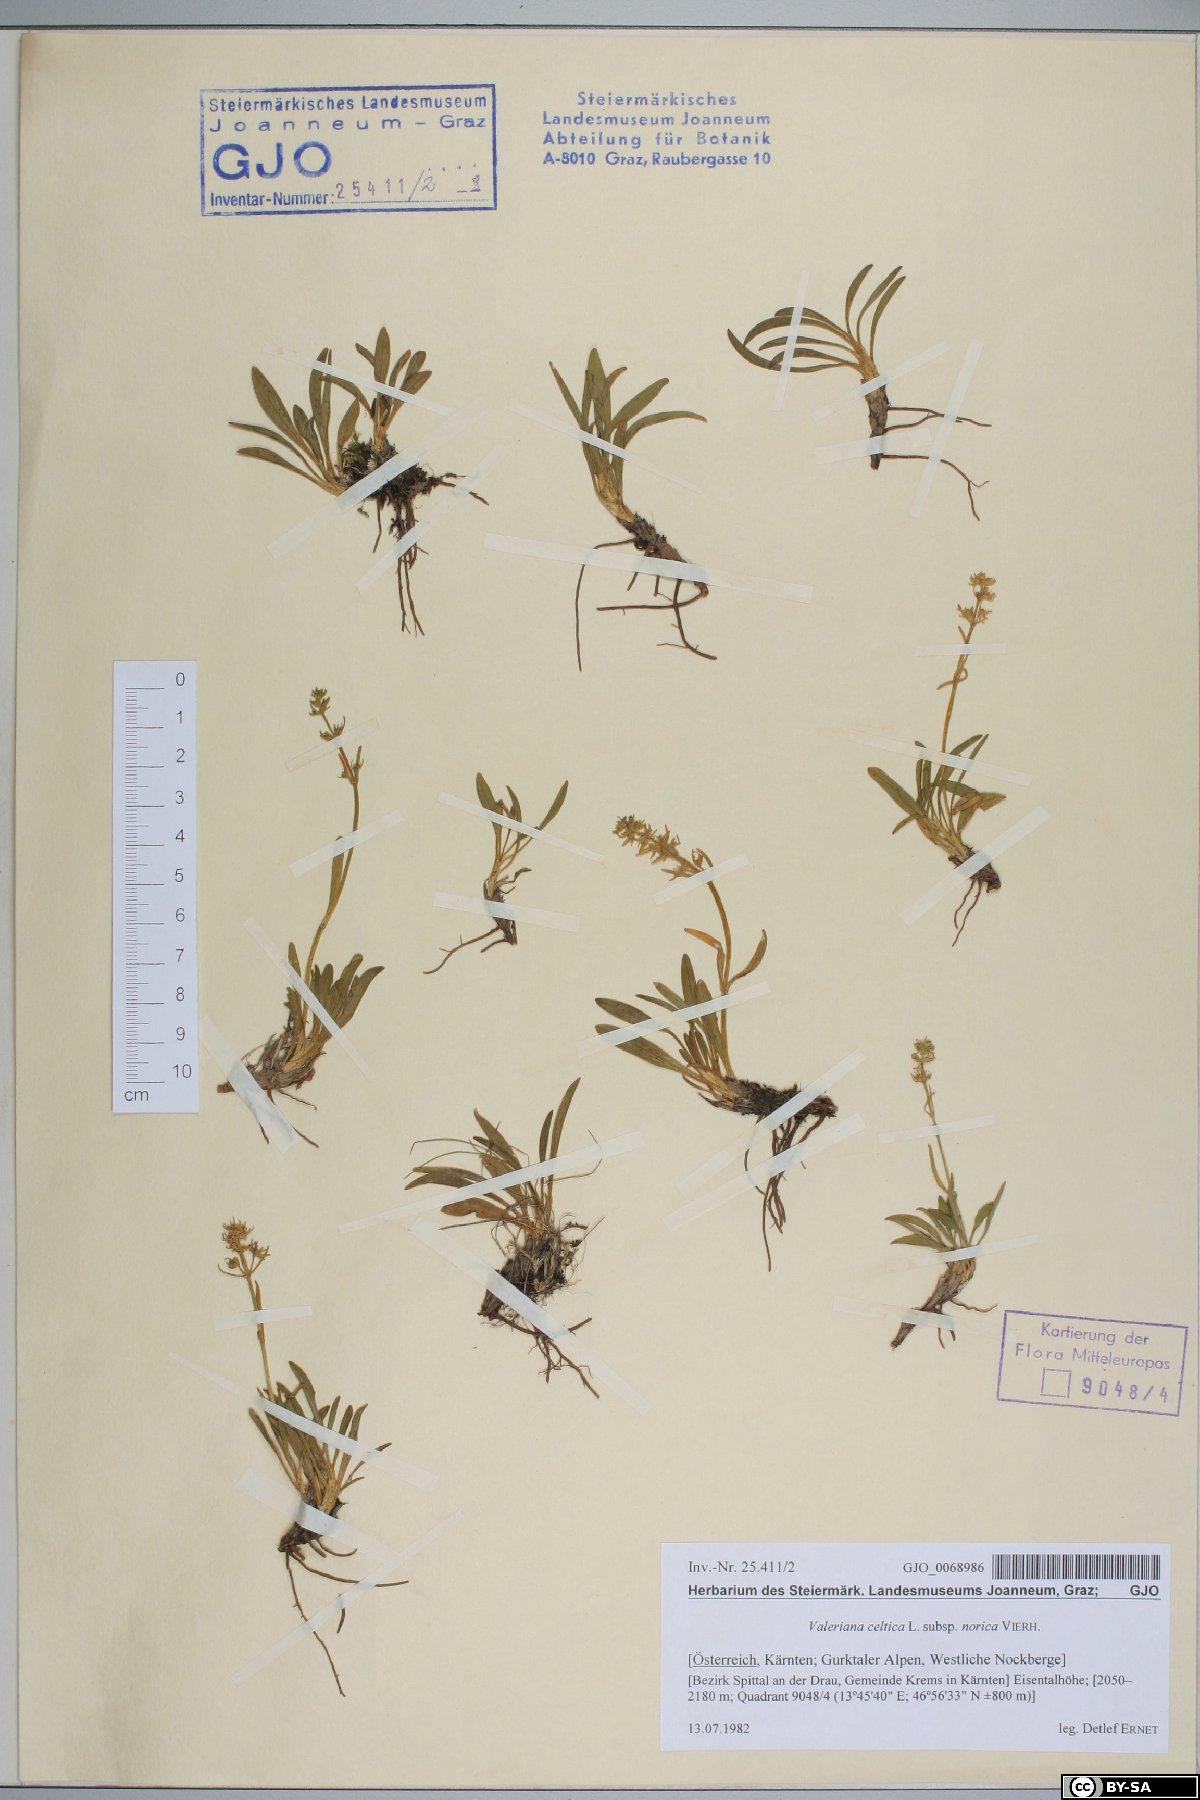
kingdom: Plantae
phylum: Tracheophyta
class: Magnoliopsida
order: Dipsacales
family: Caprifoliaceae
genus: Valeriana
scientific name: Valeriana celtica
